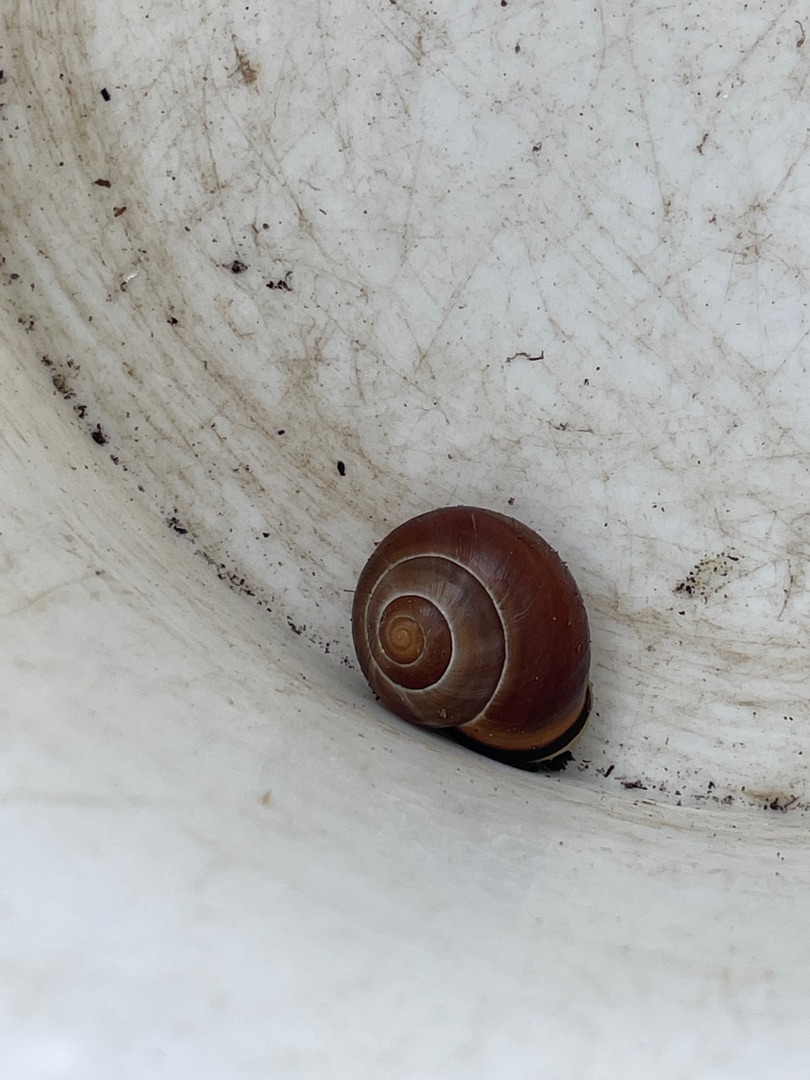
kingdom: Animalia
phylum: Mollusca
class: Gastropoda
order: Stylommatophora
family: Helicidae
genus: Cepaea
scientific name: Cepaea nemoralis
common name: Lundsnegl
